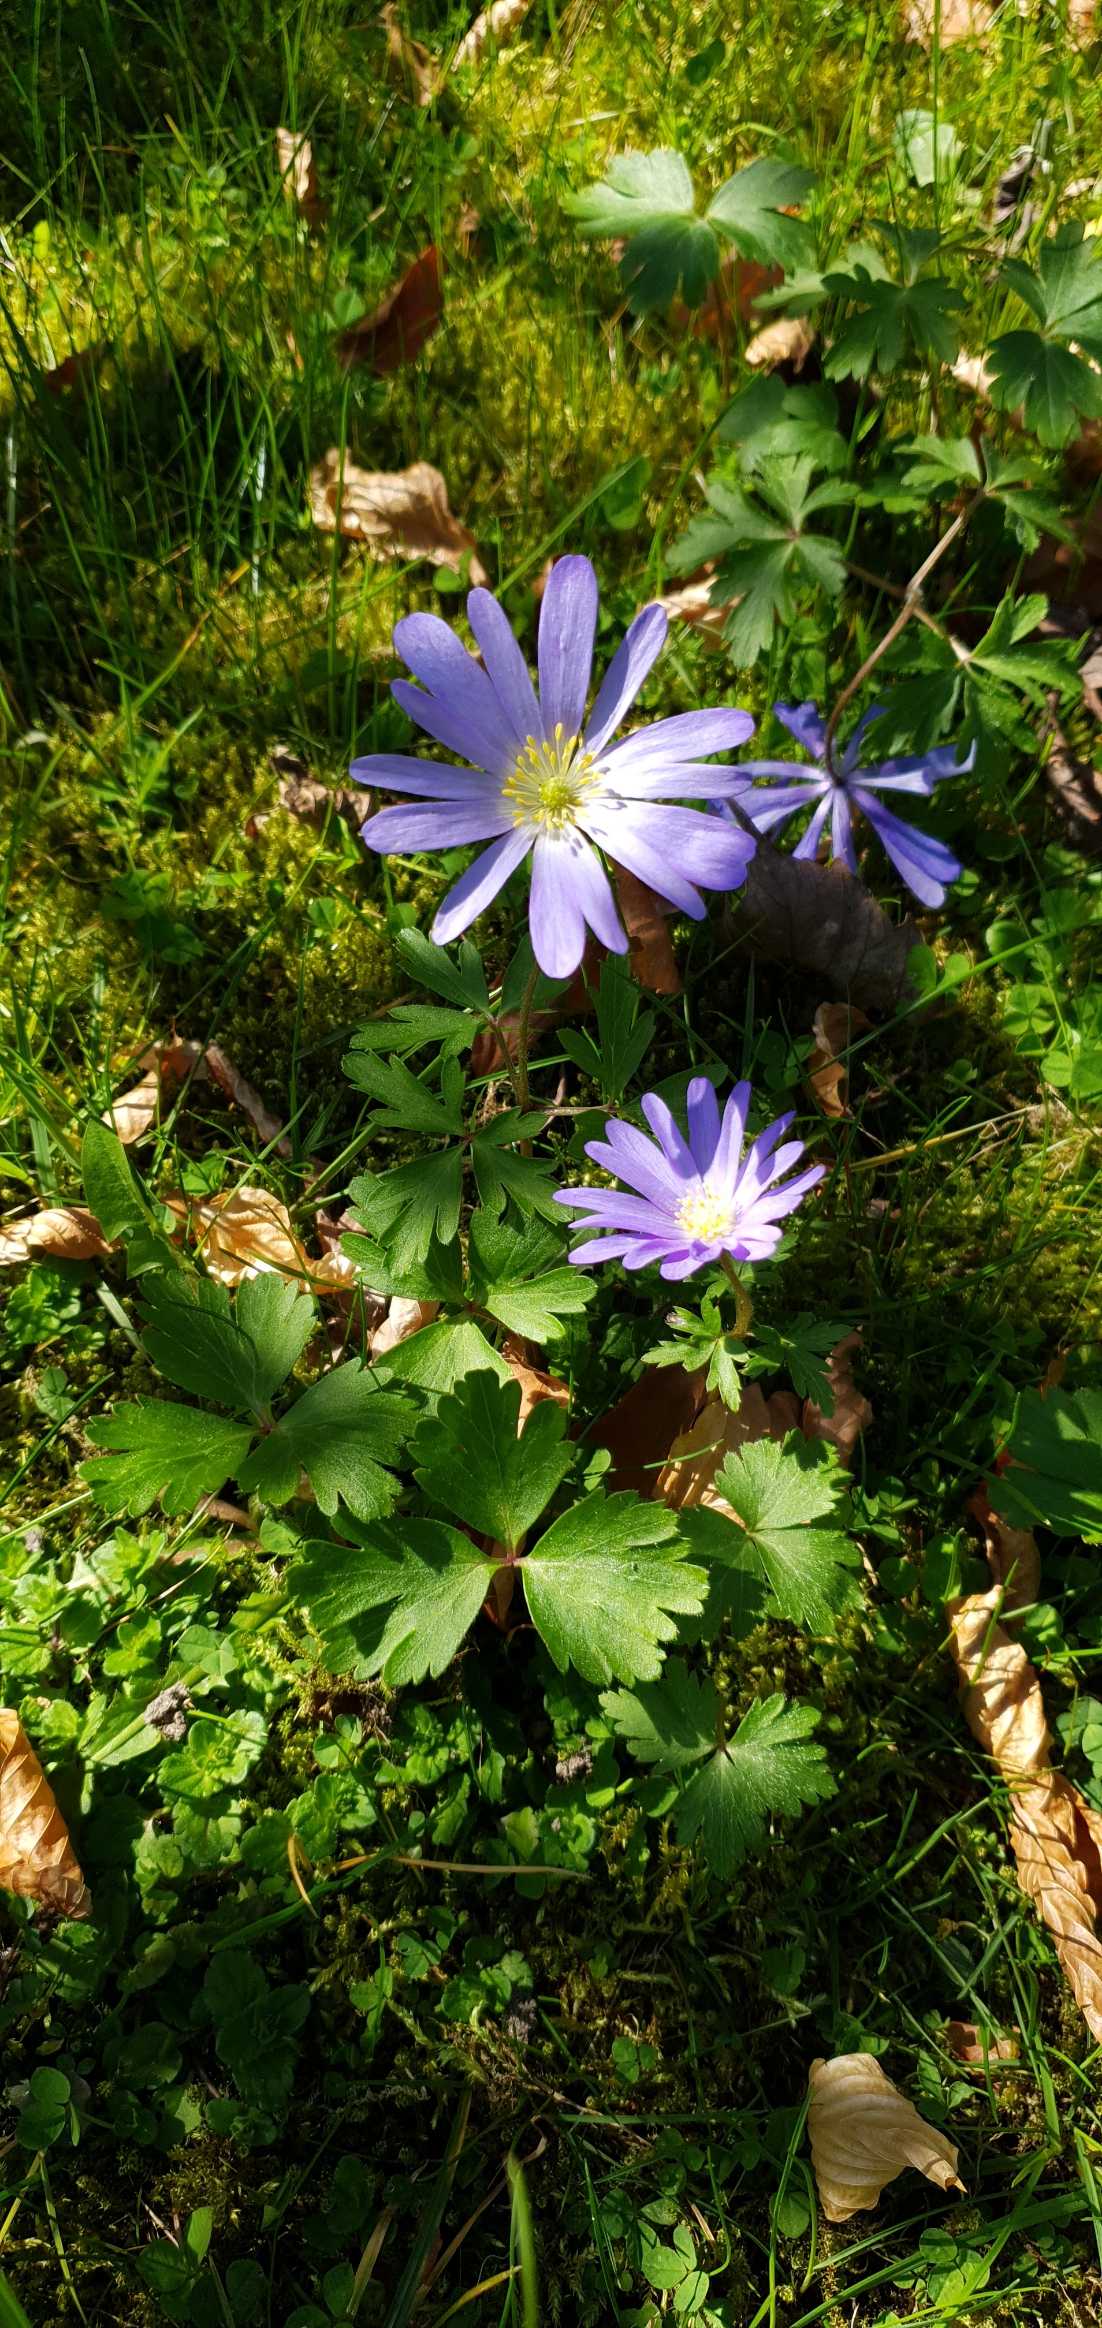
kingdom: Plantae
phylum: Tracheophyta
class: Magnoliopsida
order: Ranunculales
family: Ranunculaceae
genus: Anemone
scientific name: Anemone blanda
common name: Balkan-anemone
